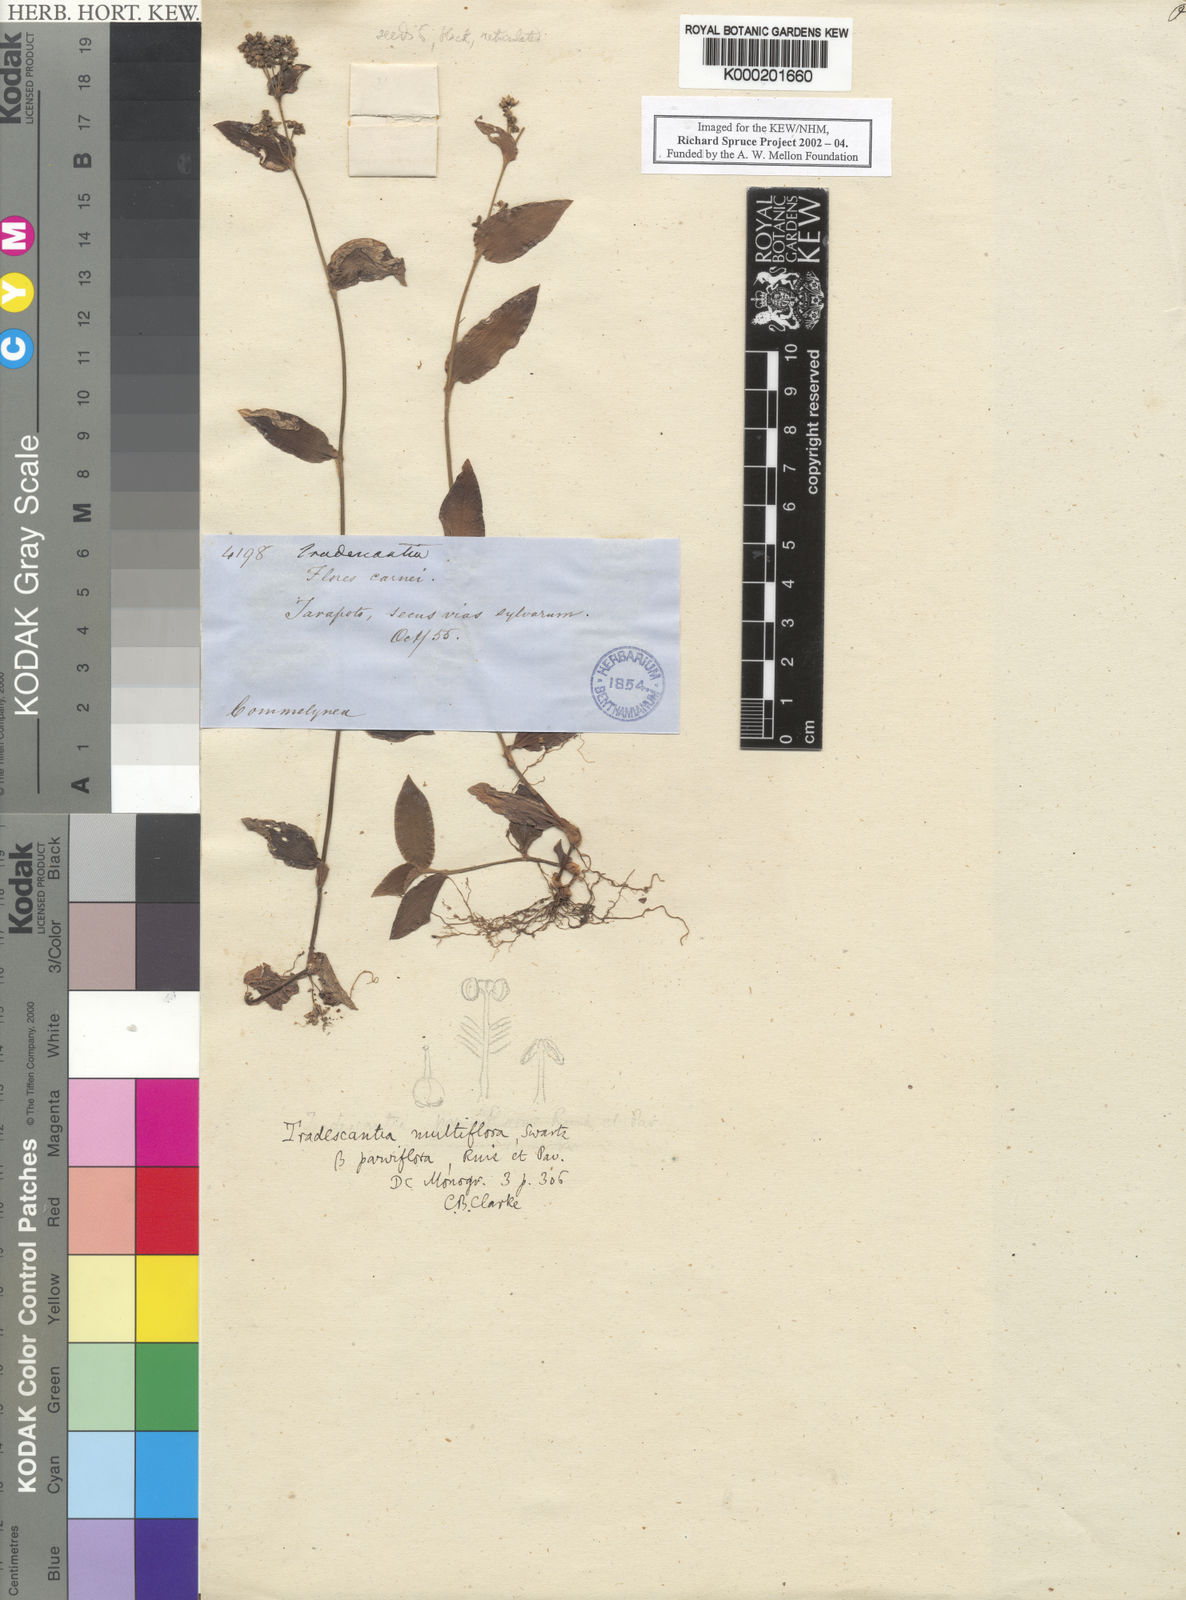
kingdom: Plantae
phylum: Tracheophyta
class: Liliopsida
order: Commelinales
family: Commelinaceae
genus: Callisia
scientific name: Callisia procumbens
